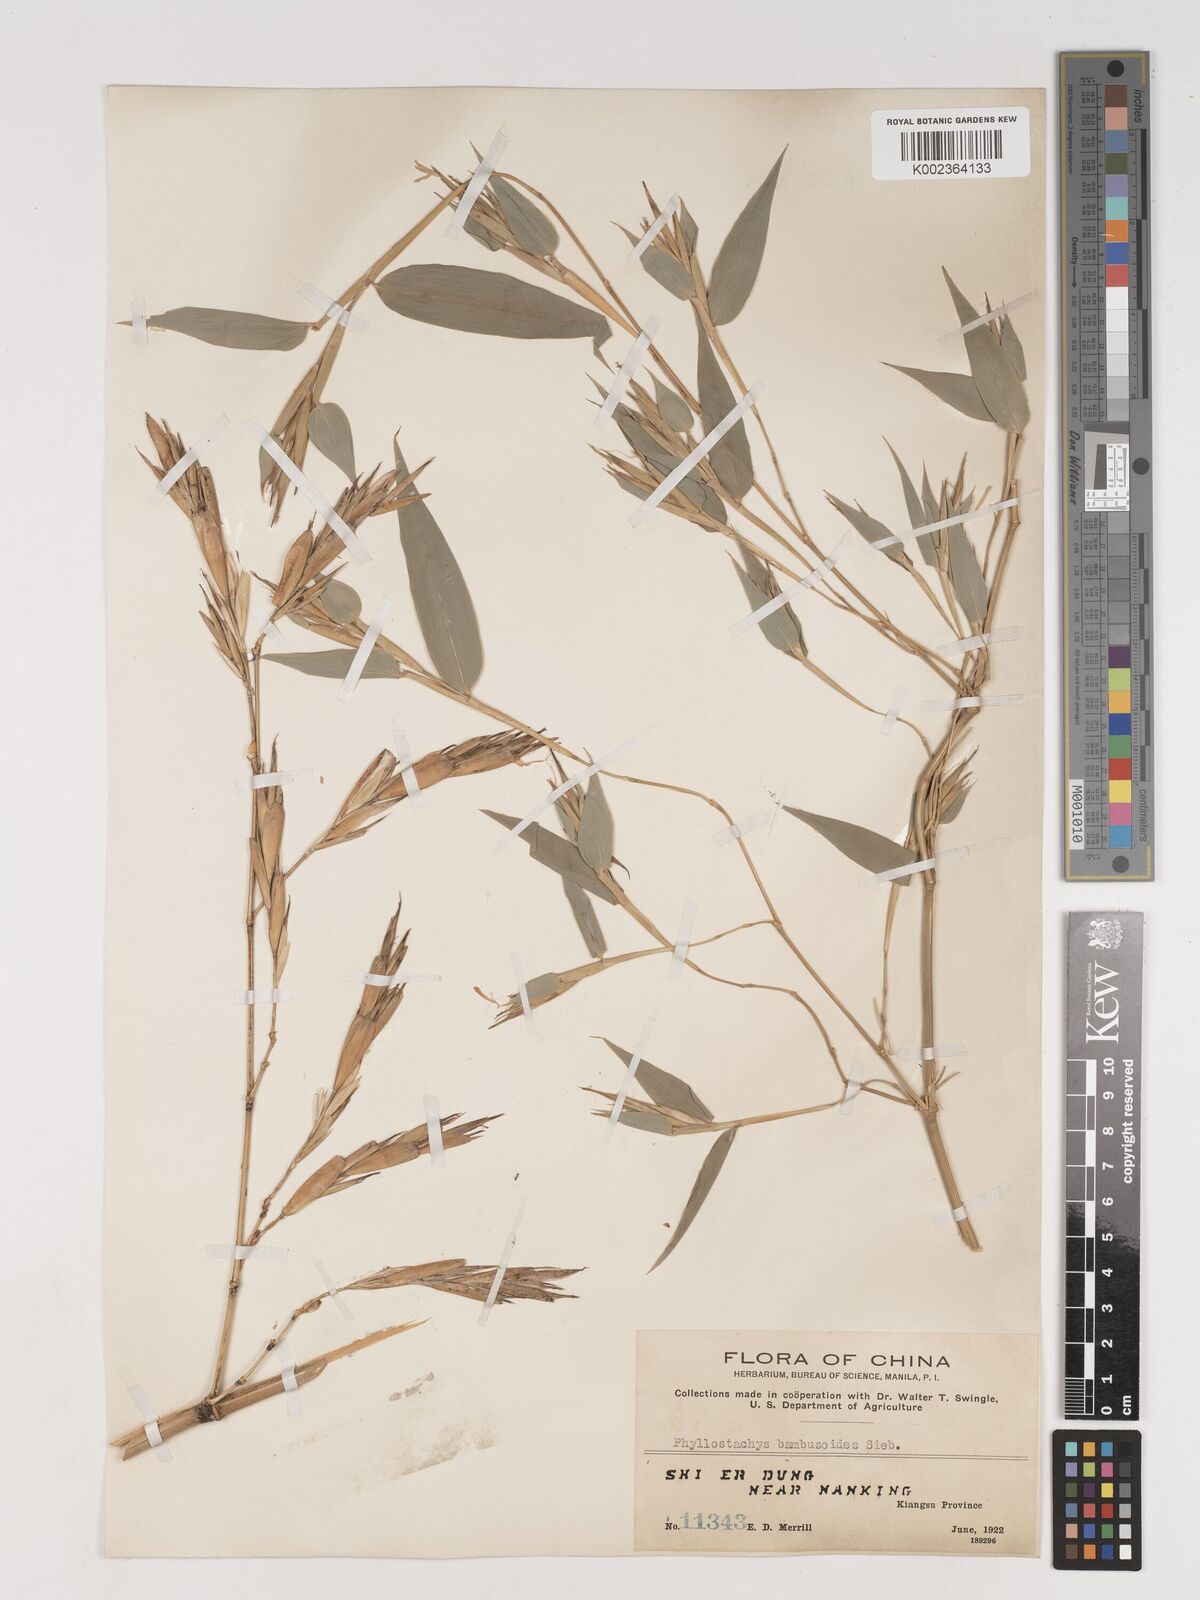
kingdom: Plantae
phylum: Tracheophyta
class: Liliopsida
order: Poales
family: Poaceae
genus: Phyllostachys
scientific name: Phyllostachys reticulata
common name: Bamboo
